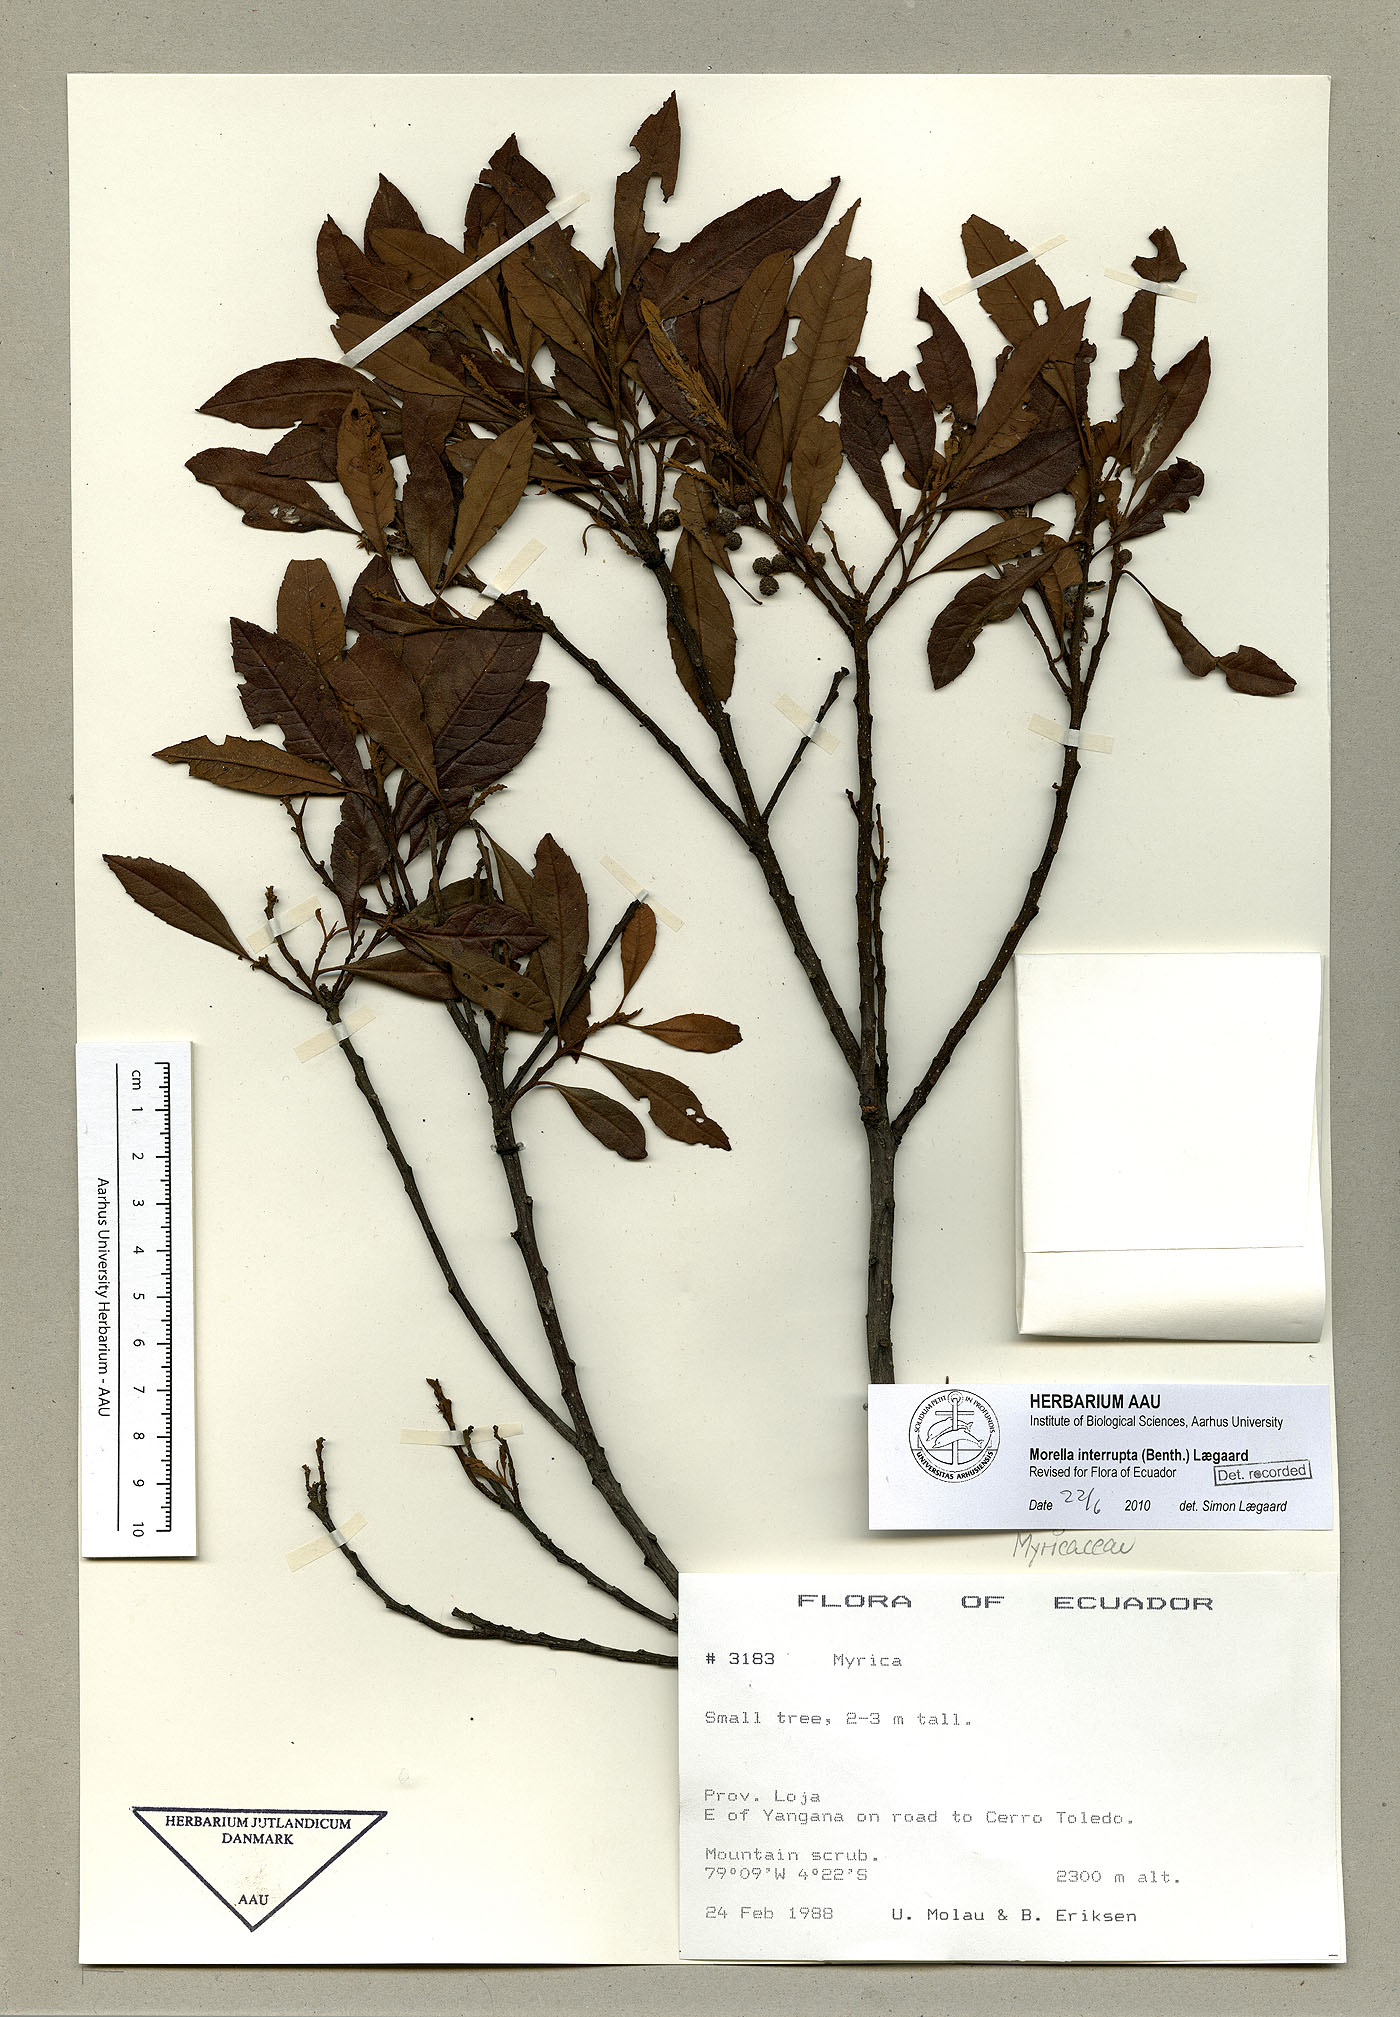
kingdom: Plantae
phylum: Tracheophyta
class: Magnoliopsida
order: Fagales
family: Myricaceae
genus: Morella
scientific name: Morella interrupta
